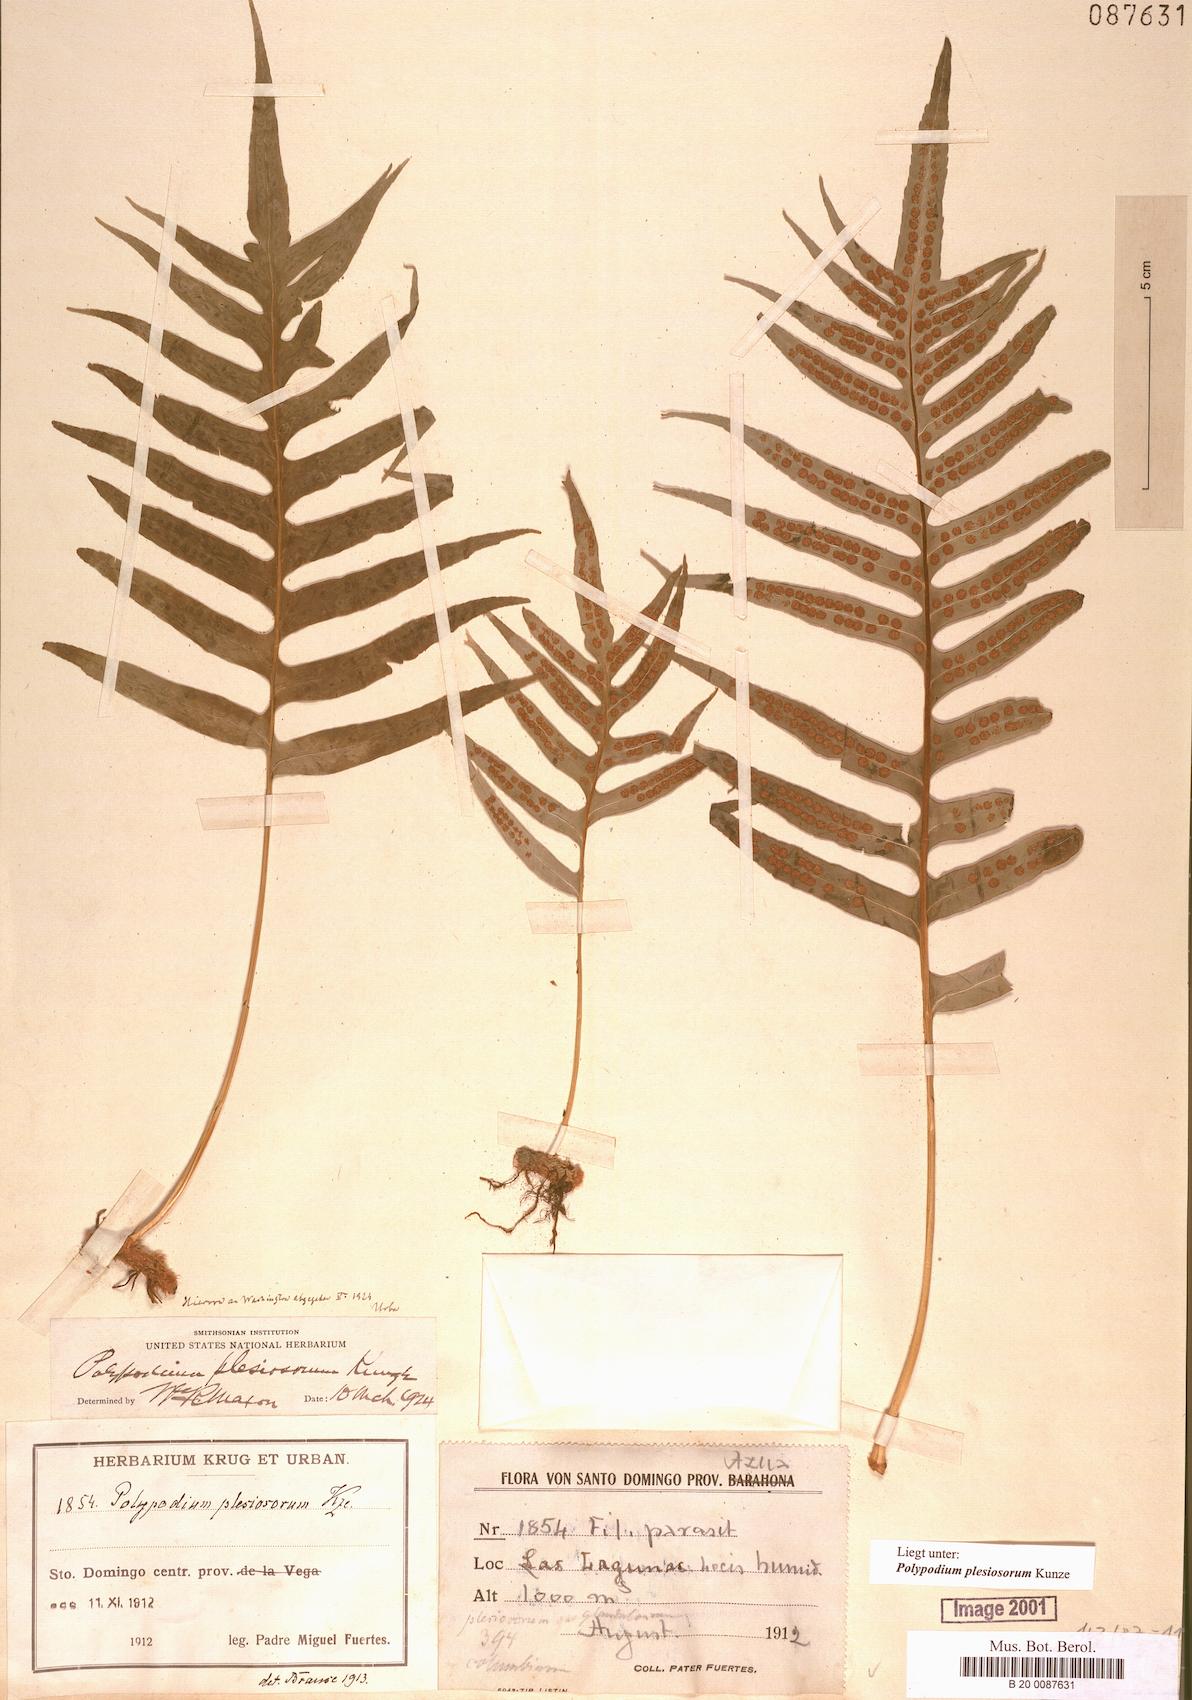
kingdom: Plantae
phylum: Tracheophyta
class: Polypodiopsida
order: Polypodiales
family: Polypodiaceae
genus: Polypodium
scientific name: Polypodium plesiosorum
